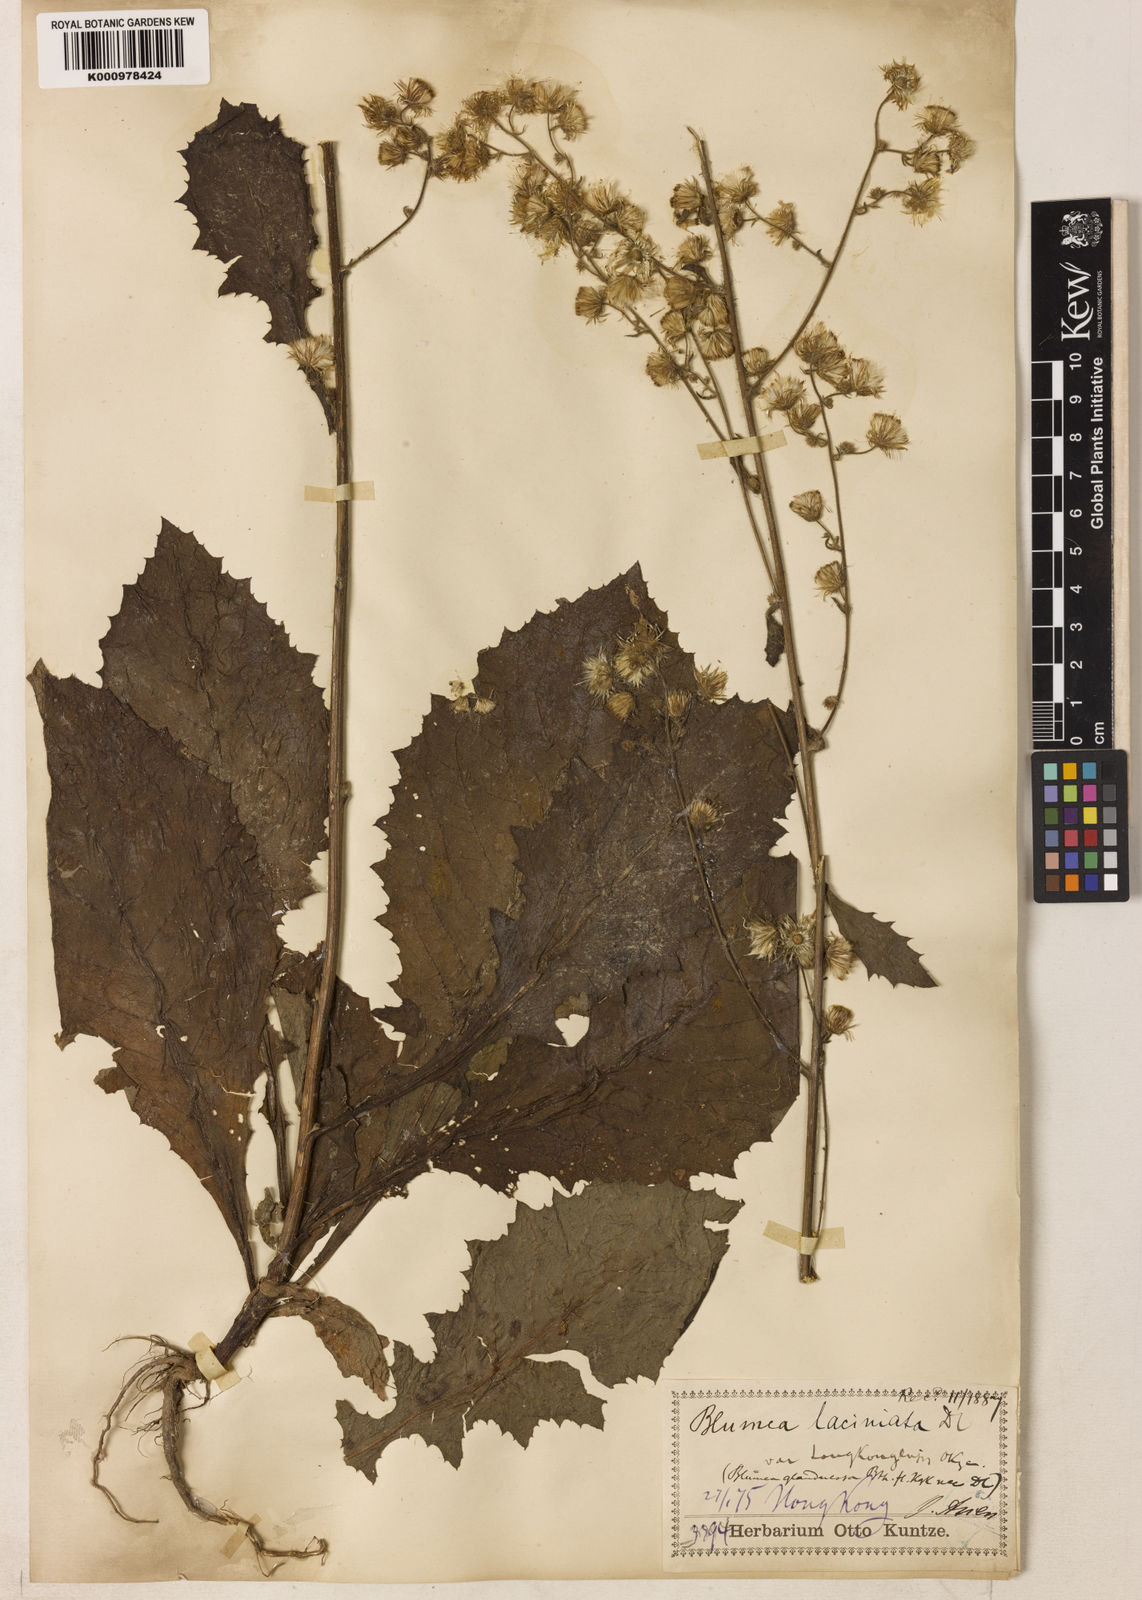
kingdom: Plantae
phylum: Tracheophyta
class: Magnoliopsida
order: Asterales
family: Asteraceae
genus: Blumea
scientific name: Blumea sinuata
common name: Cutleaf false oxtongue
